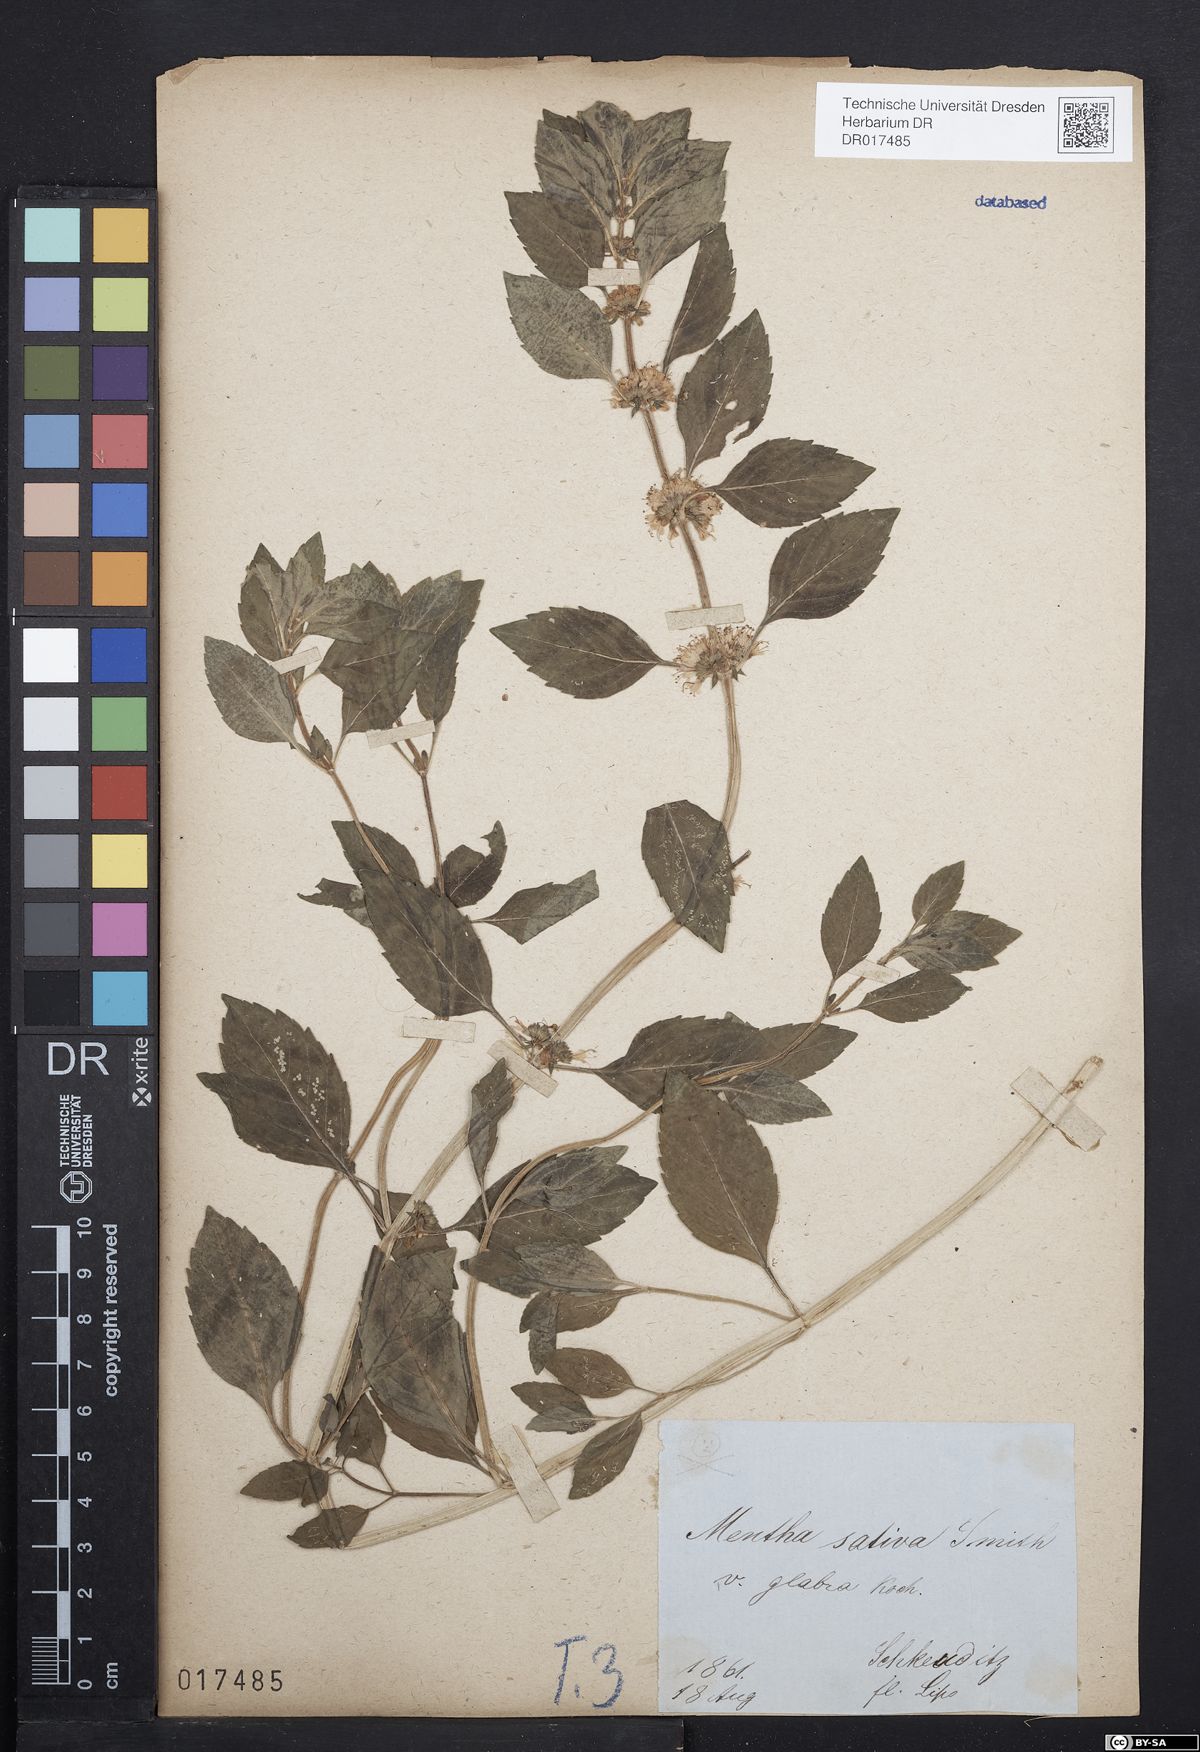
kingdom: Plantae
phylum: Tracheophyta
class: Magnoliopsida
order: Lamiales
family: Lamiaceae
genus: Mentha
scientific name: Mentha verticillata
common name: Mint
